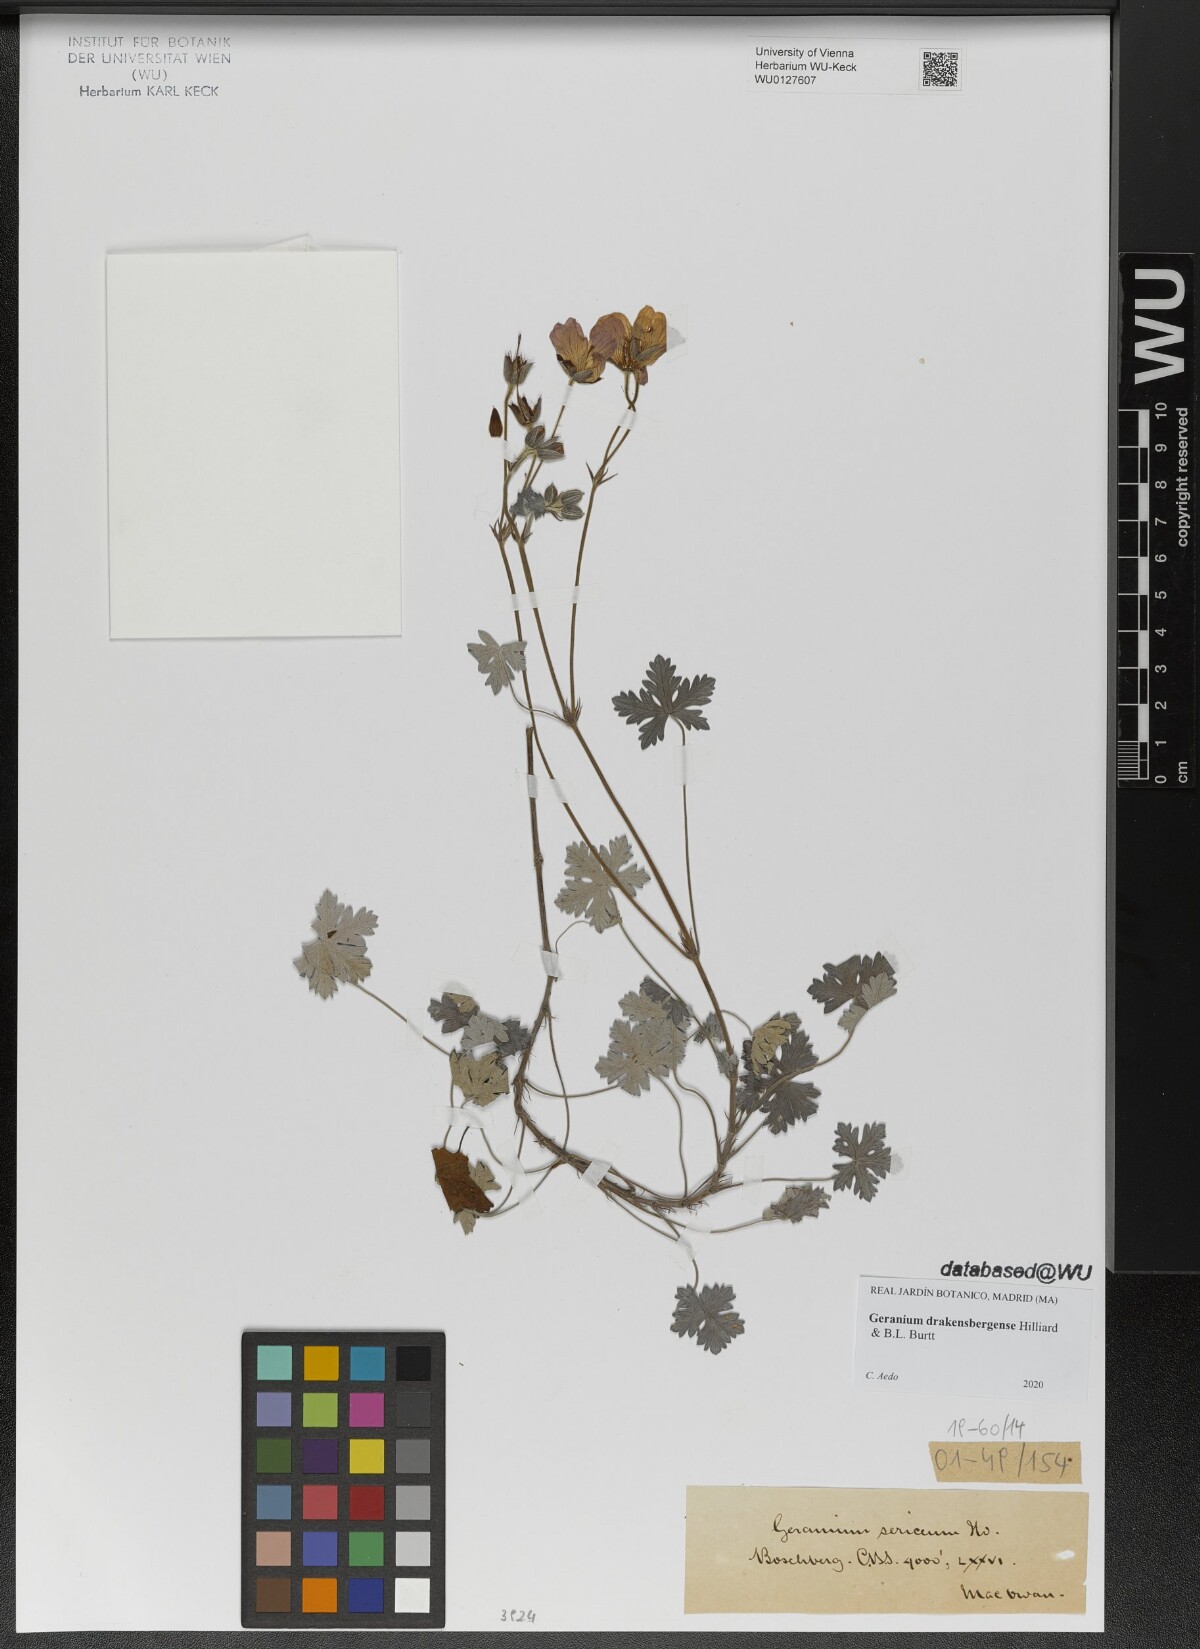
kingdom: Plantae
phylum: Tracheophyta
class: Magnoliopsida
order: Geraniales
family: Geraniaceae
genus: Geranium
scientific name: Geranium drakensbergense
